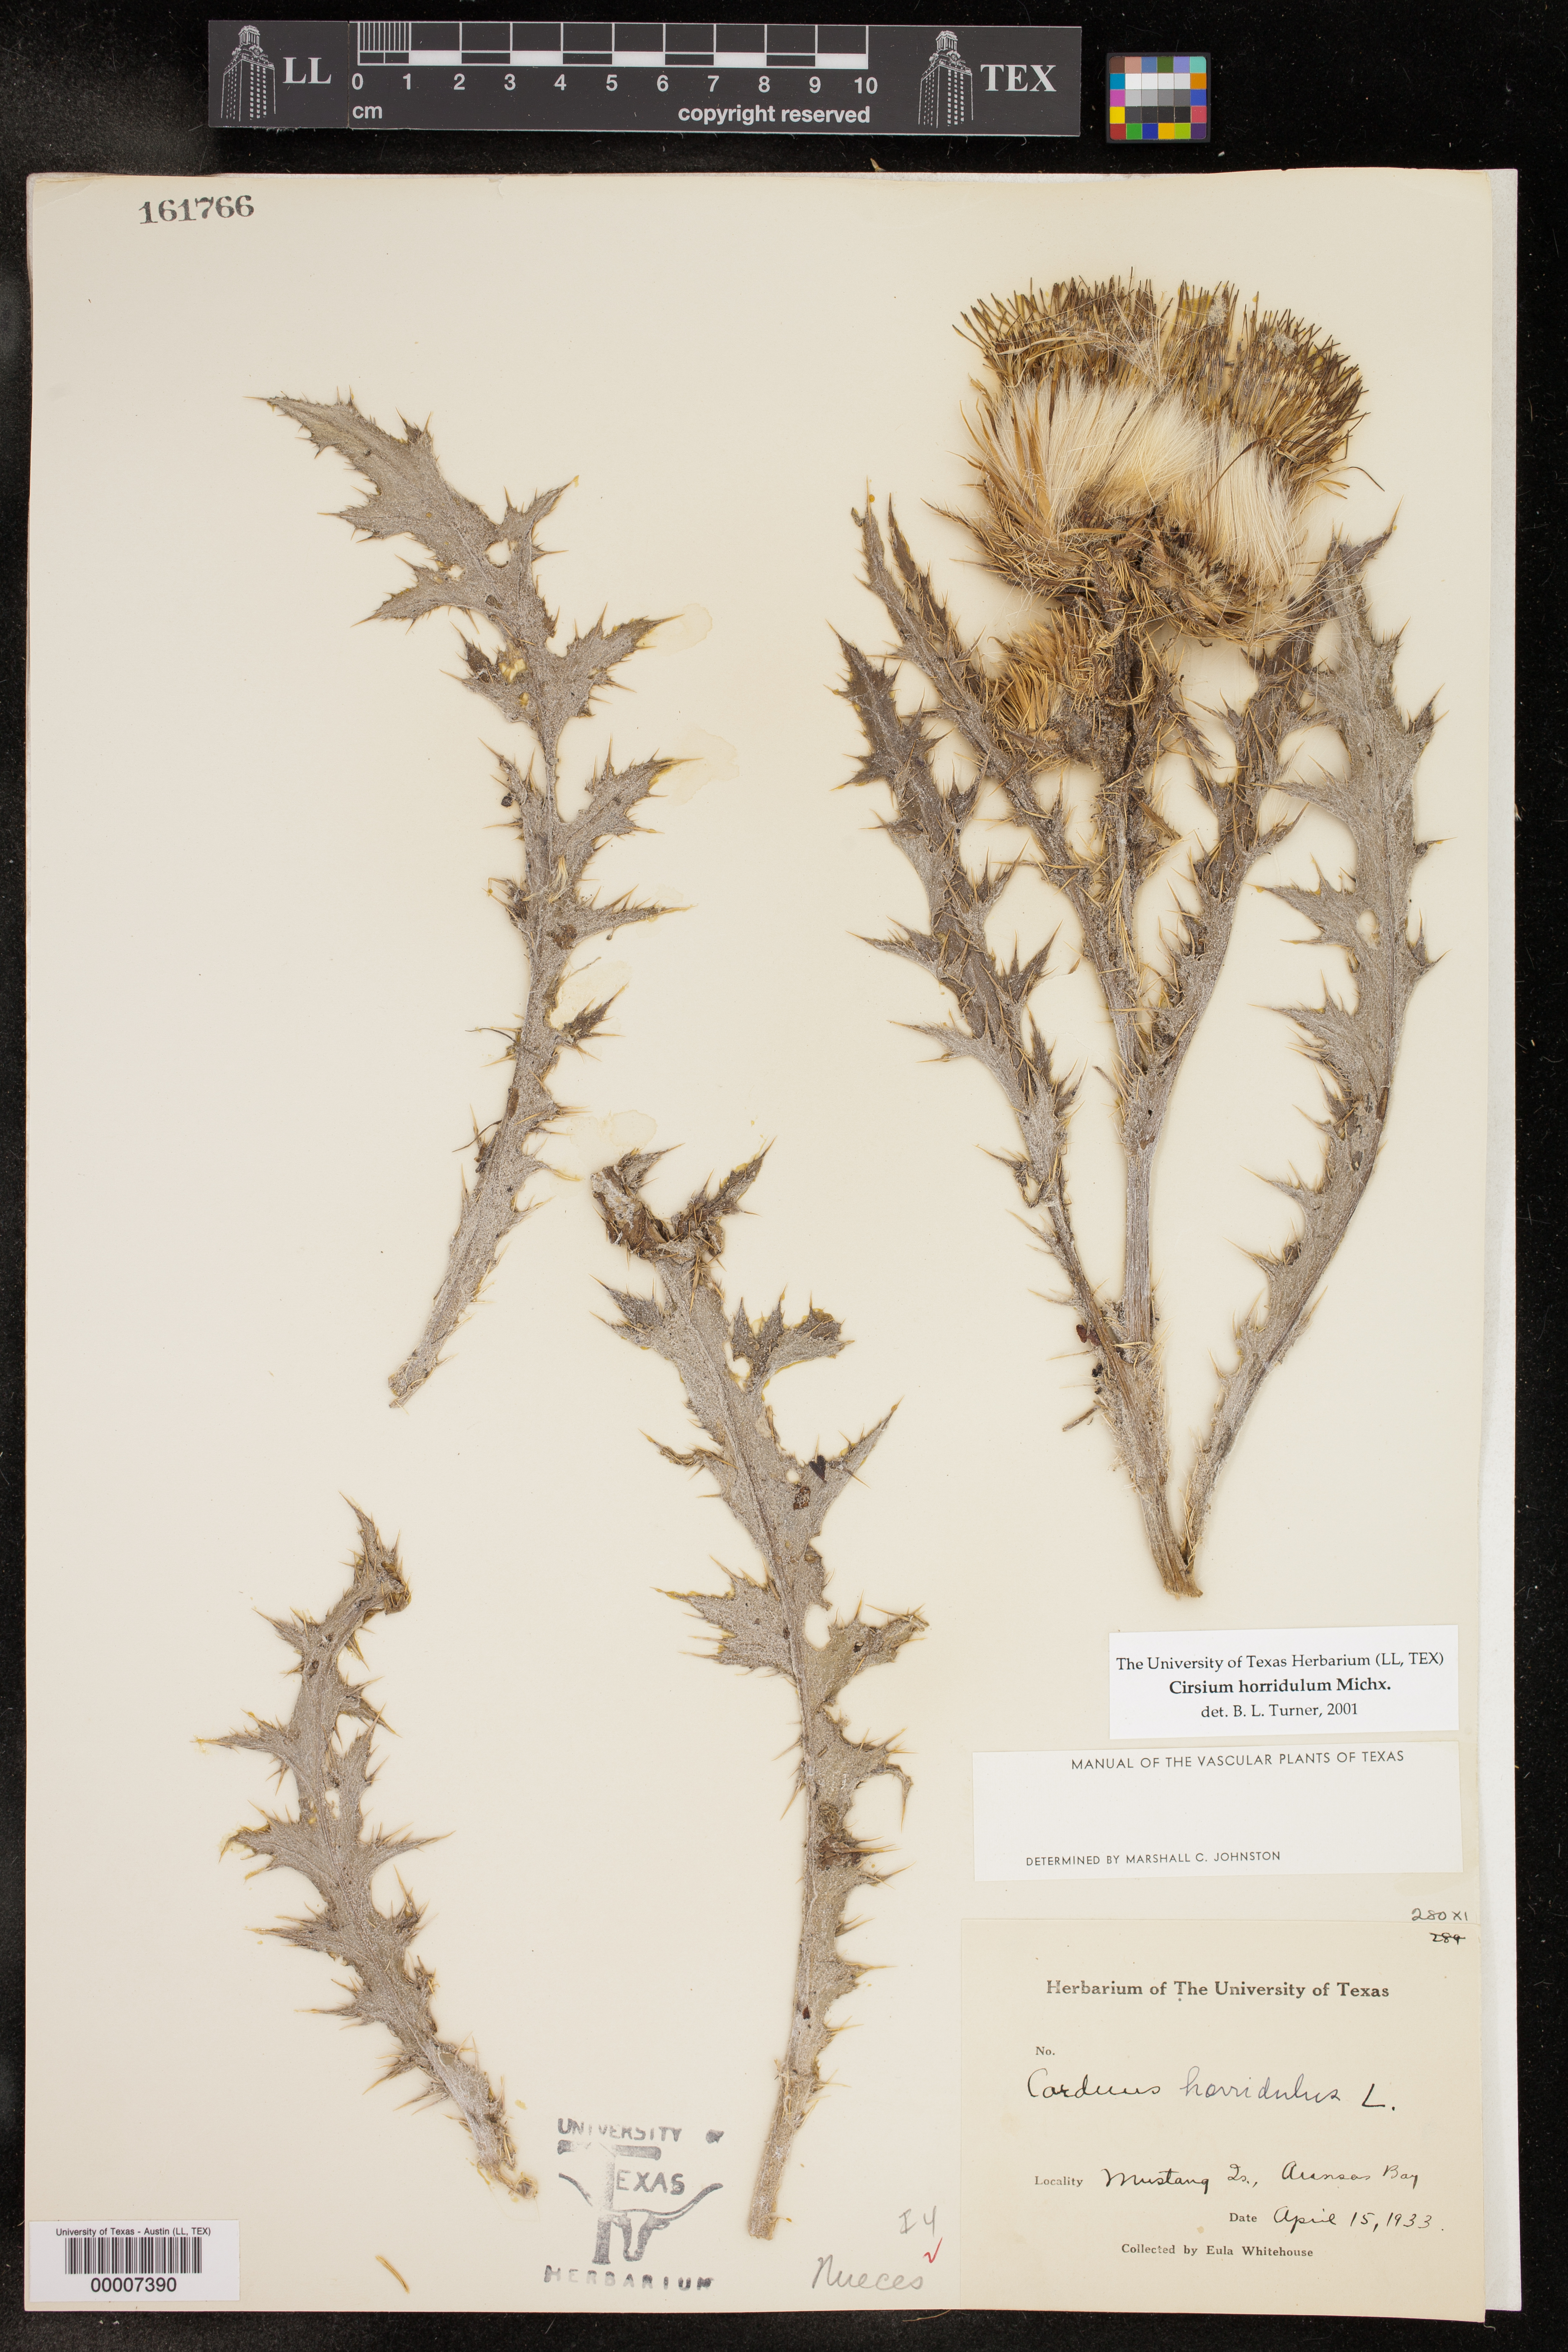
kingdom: Plantae
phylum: Tracheophyta
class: Magnoliopsida
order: Asterales
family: Asteraceae
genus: Cirsium
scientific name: Cirsium horridulum
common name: Bristly thistle
